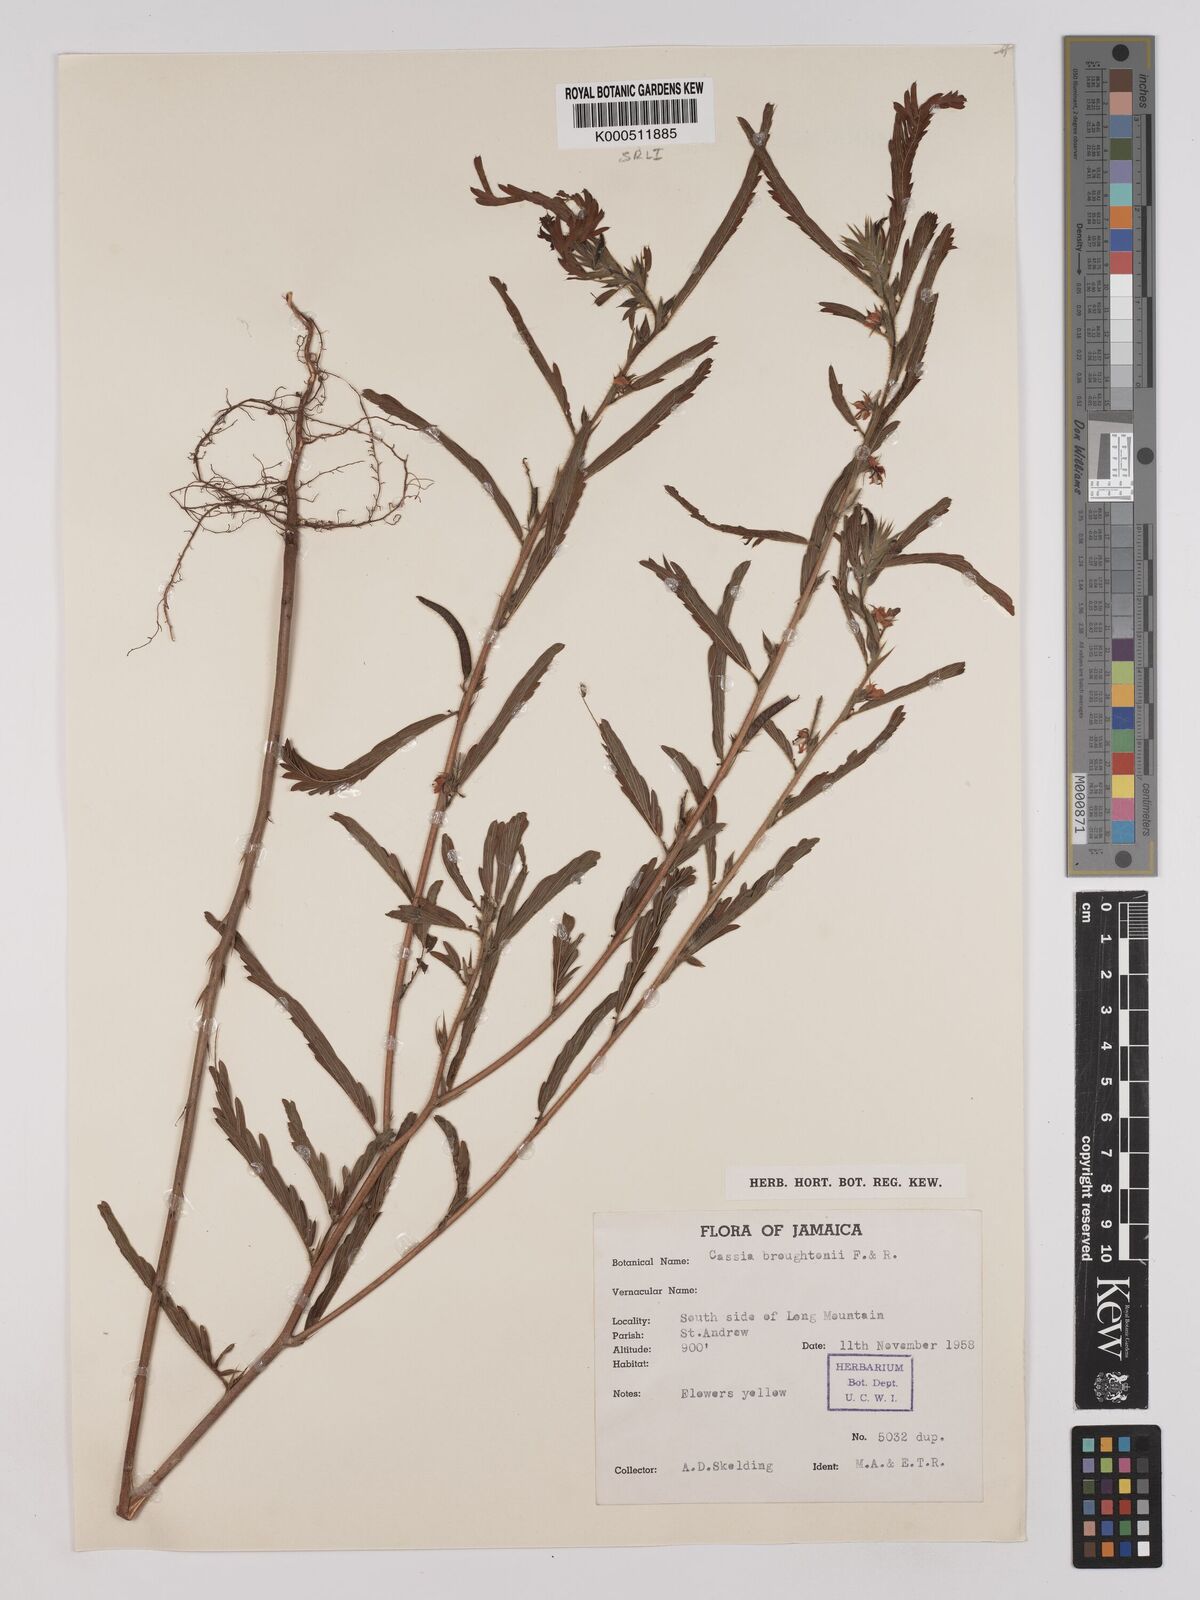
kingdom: Plantae
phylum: Tracheophyta
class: Magnoliopsida
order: Fabales
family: Fabaceae
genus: Chamaecrista
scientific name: Chamaecrista nictitans
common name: Sensitive cassia
